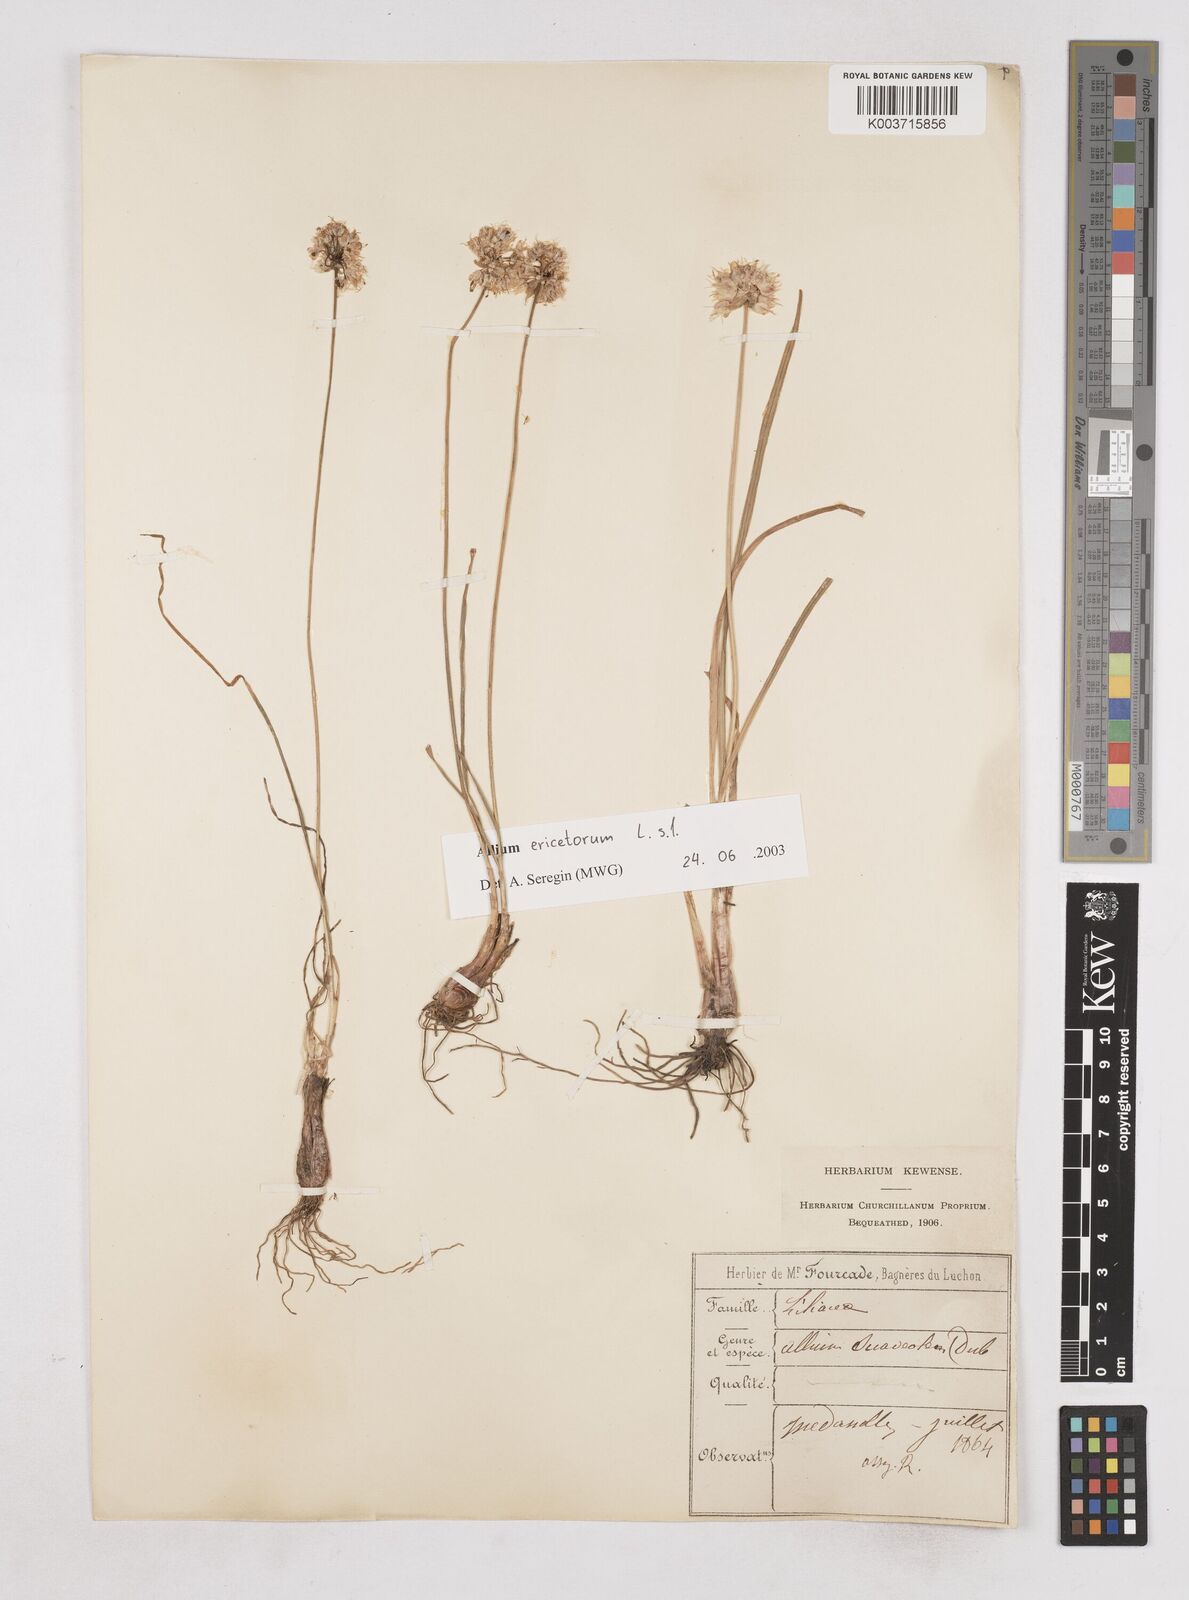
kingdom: Plantae
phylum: Tracheophyta
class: Liliopsida
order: Asparagales
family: Amaryllidaceae
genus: Allium
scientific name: Allium ericetorum
